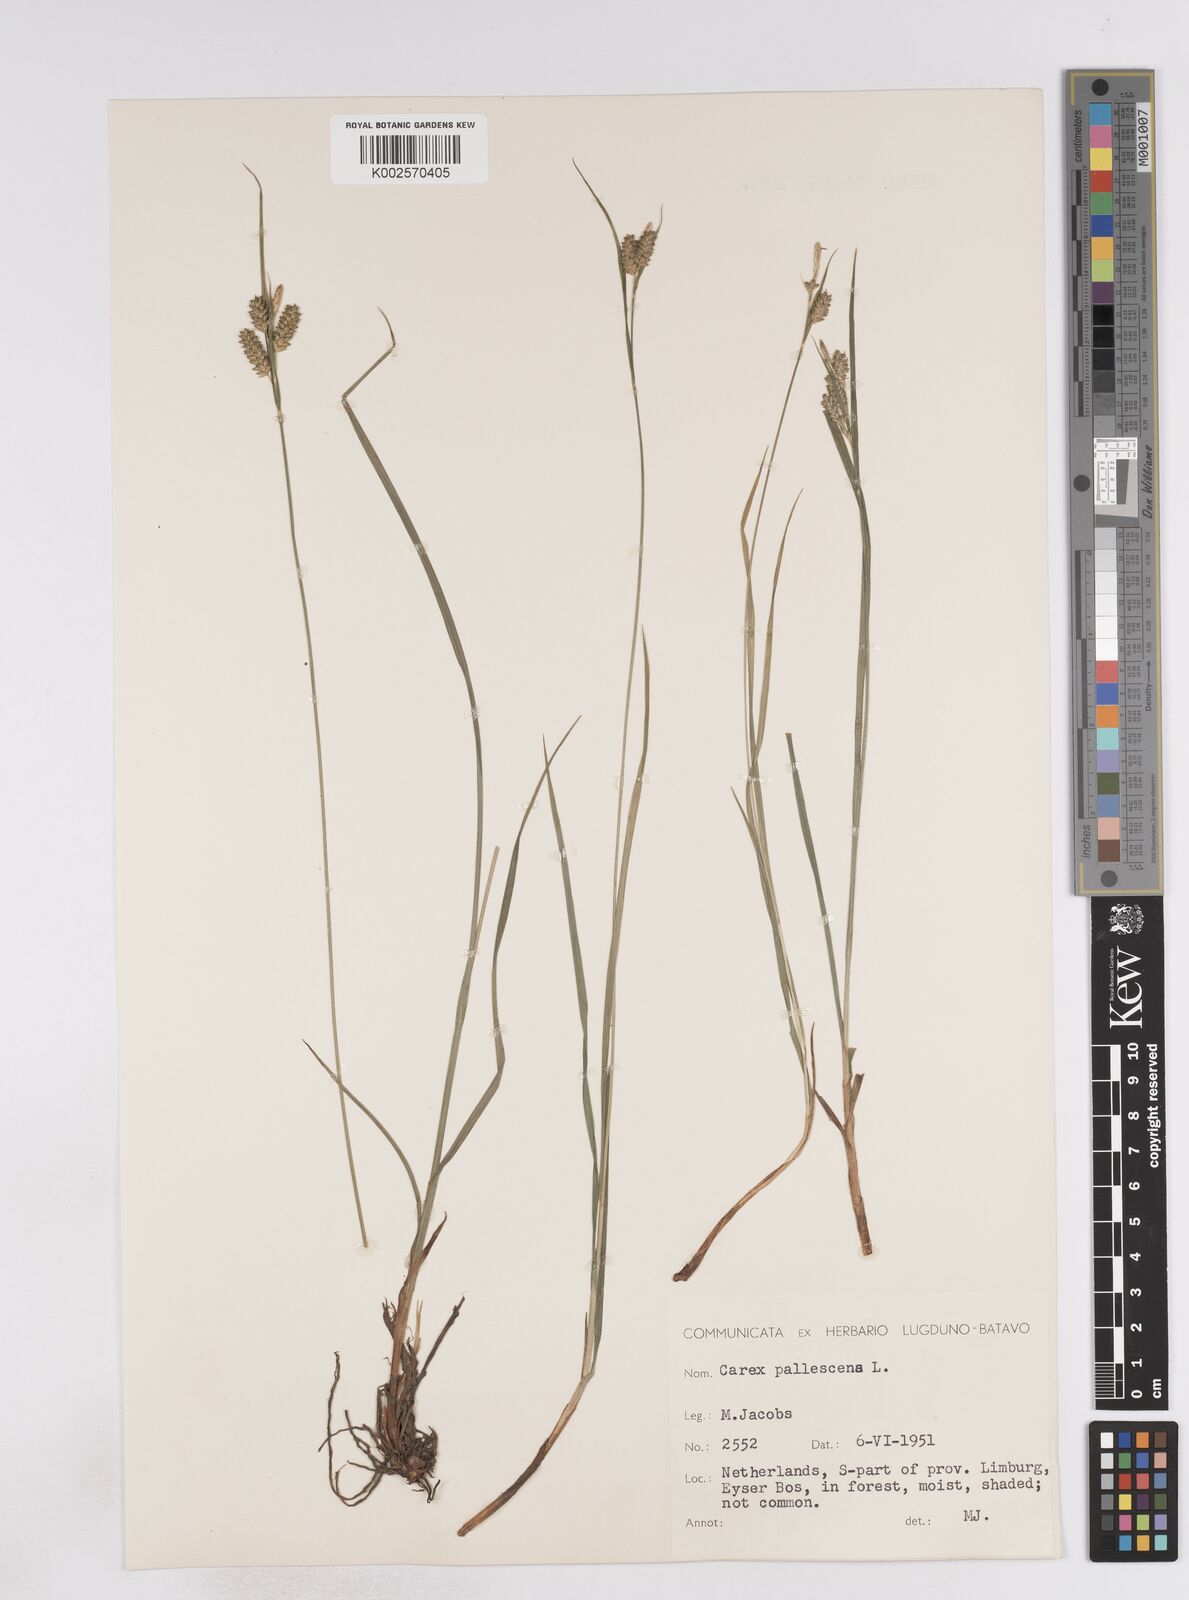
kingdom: Plantae
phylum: Tracheophyta
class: Liliopsida
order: Poales
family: Cyperaceae
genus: Carex
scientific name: Carex pallescens
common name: Pale sedge
